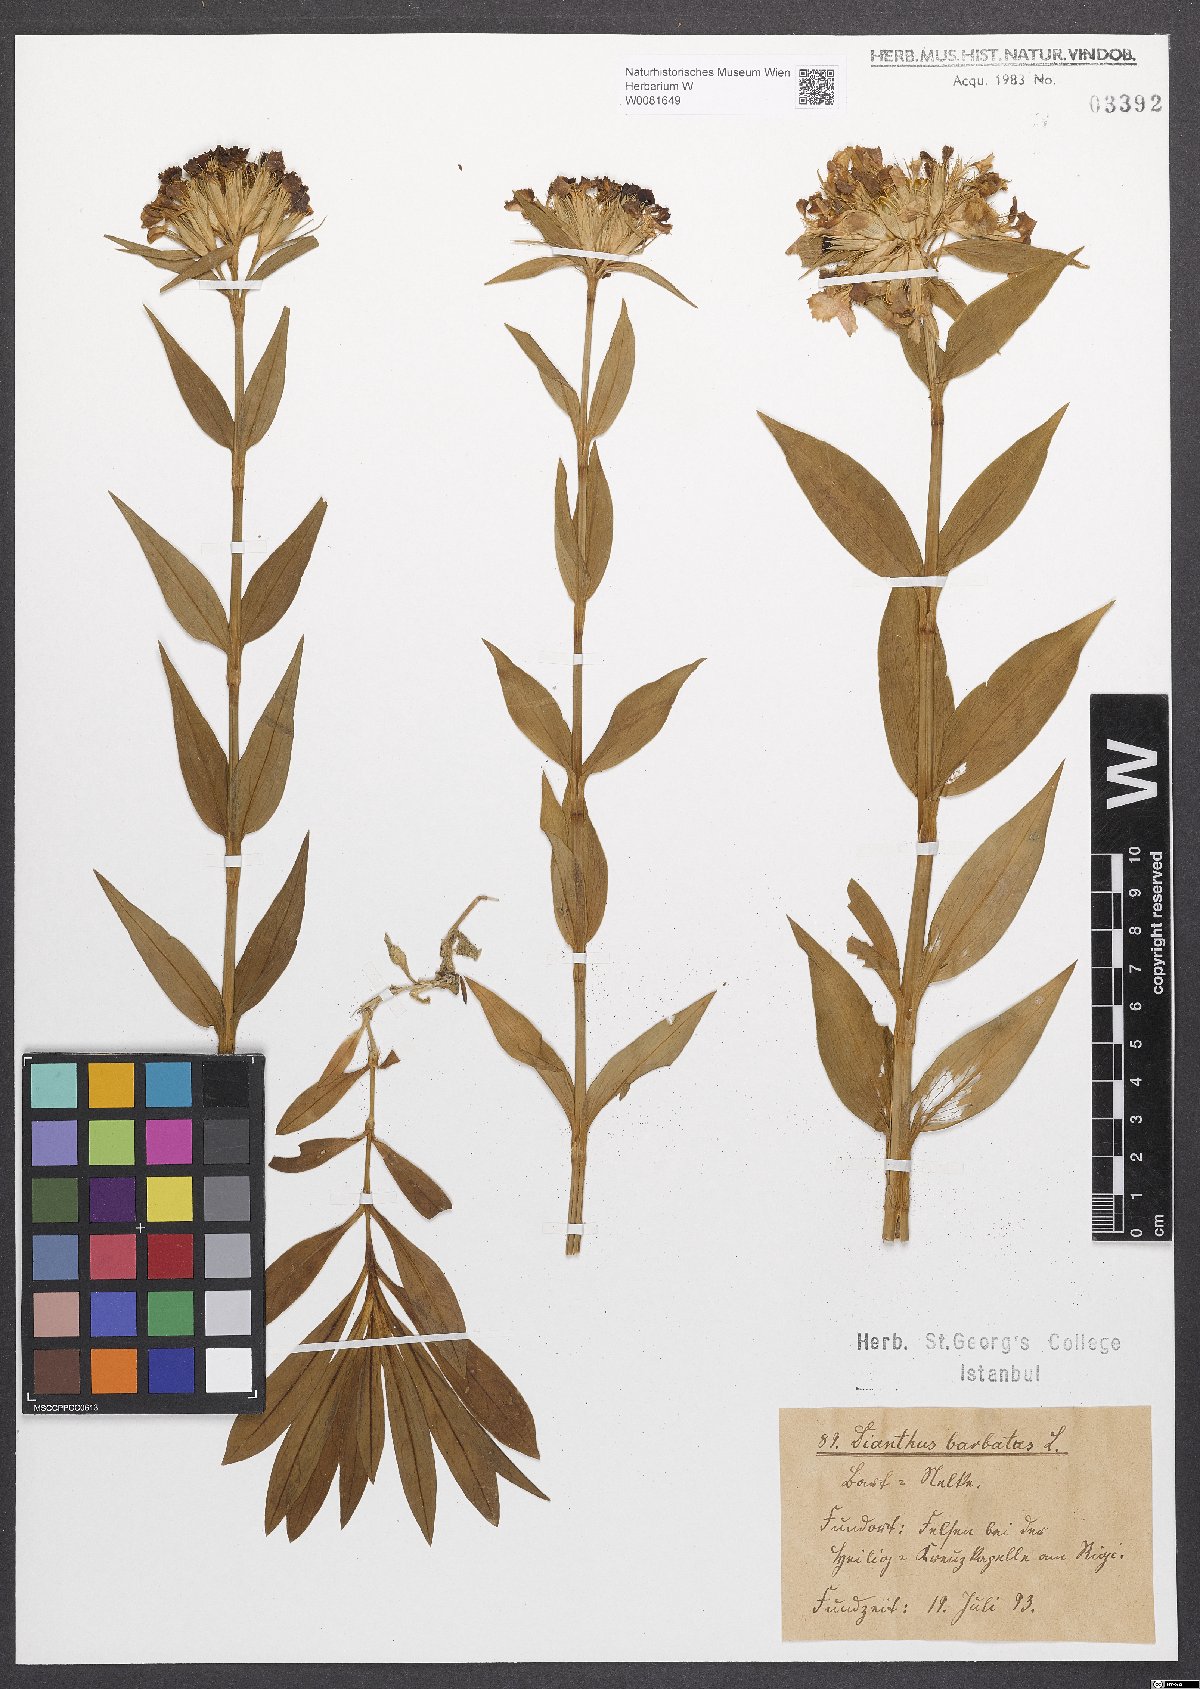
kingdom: Plantae
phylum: Tracheophyta
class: Magnoliopsida
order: Caryophyllales
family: Caryophyllaceae
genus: Dianthus
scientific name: Dianthus barbatus
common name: Sweet-william
